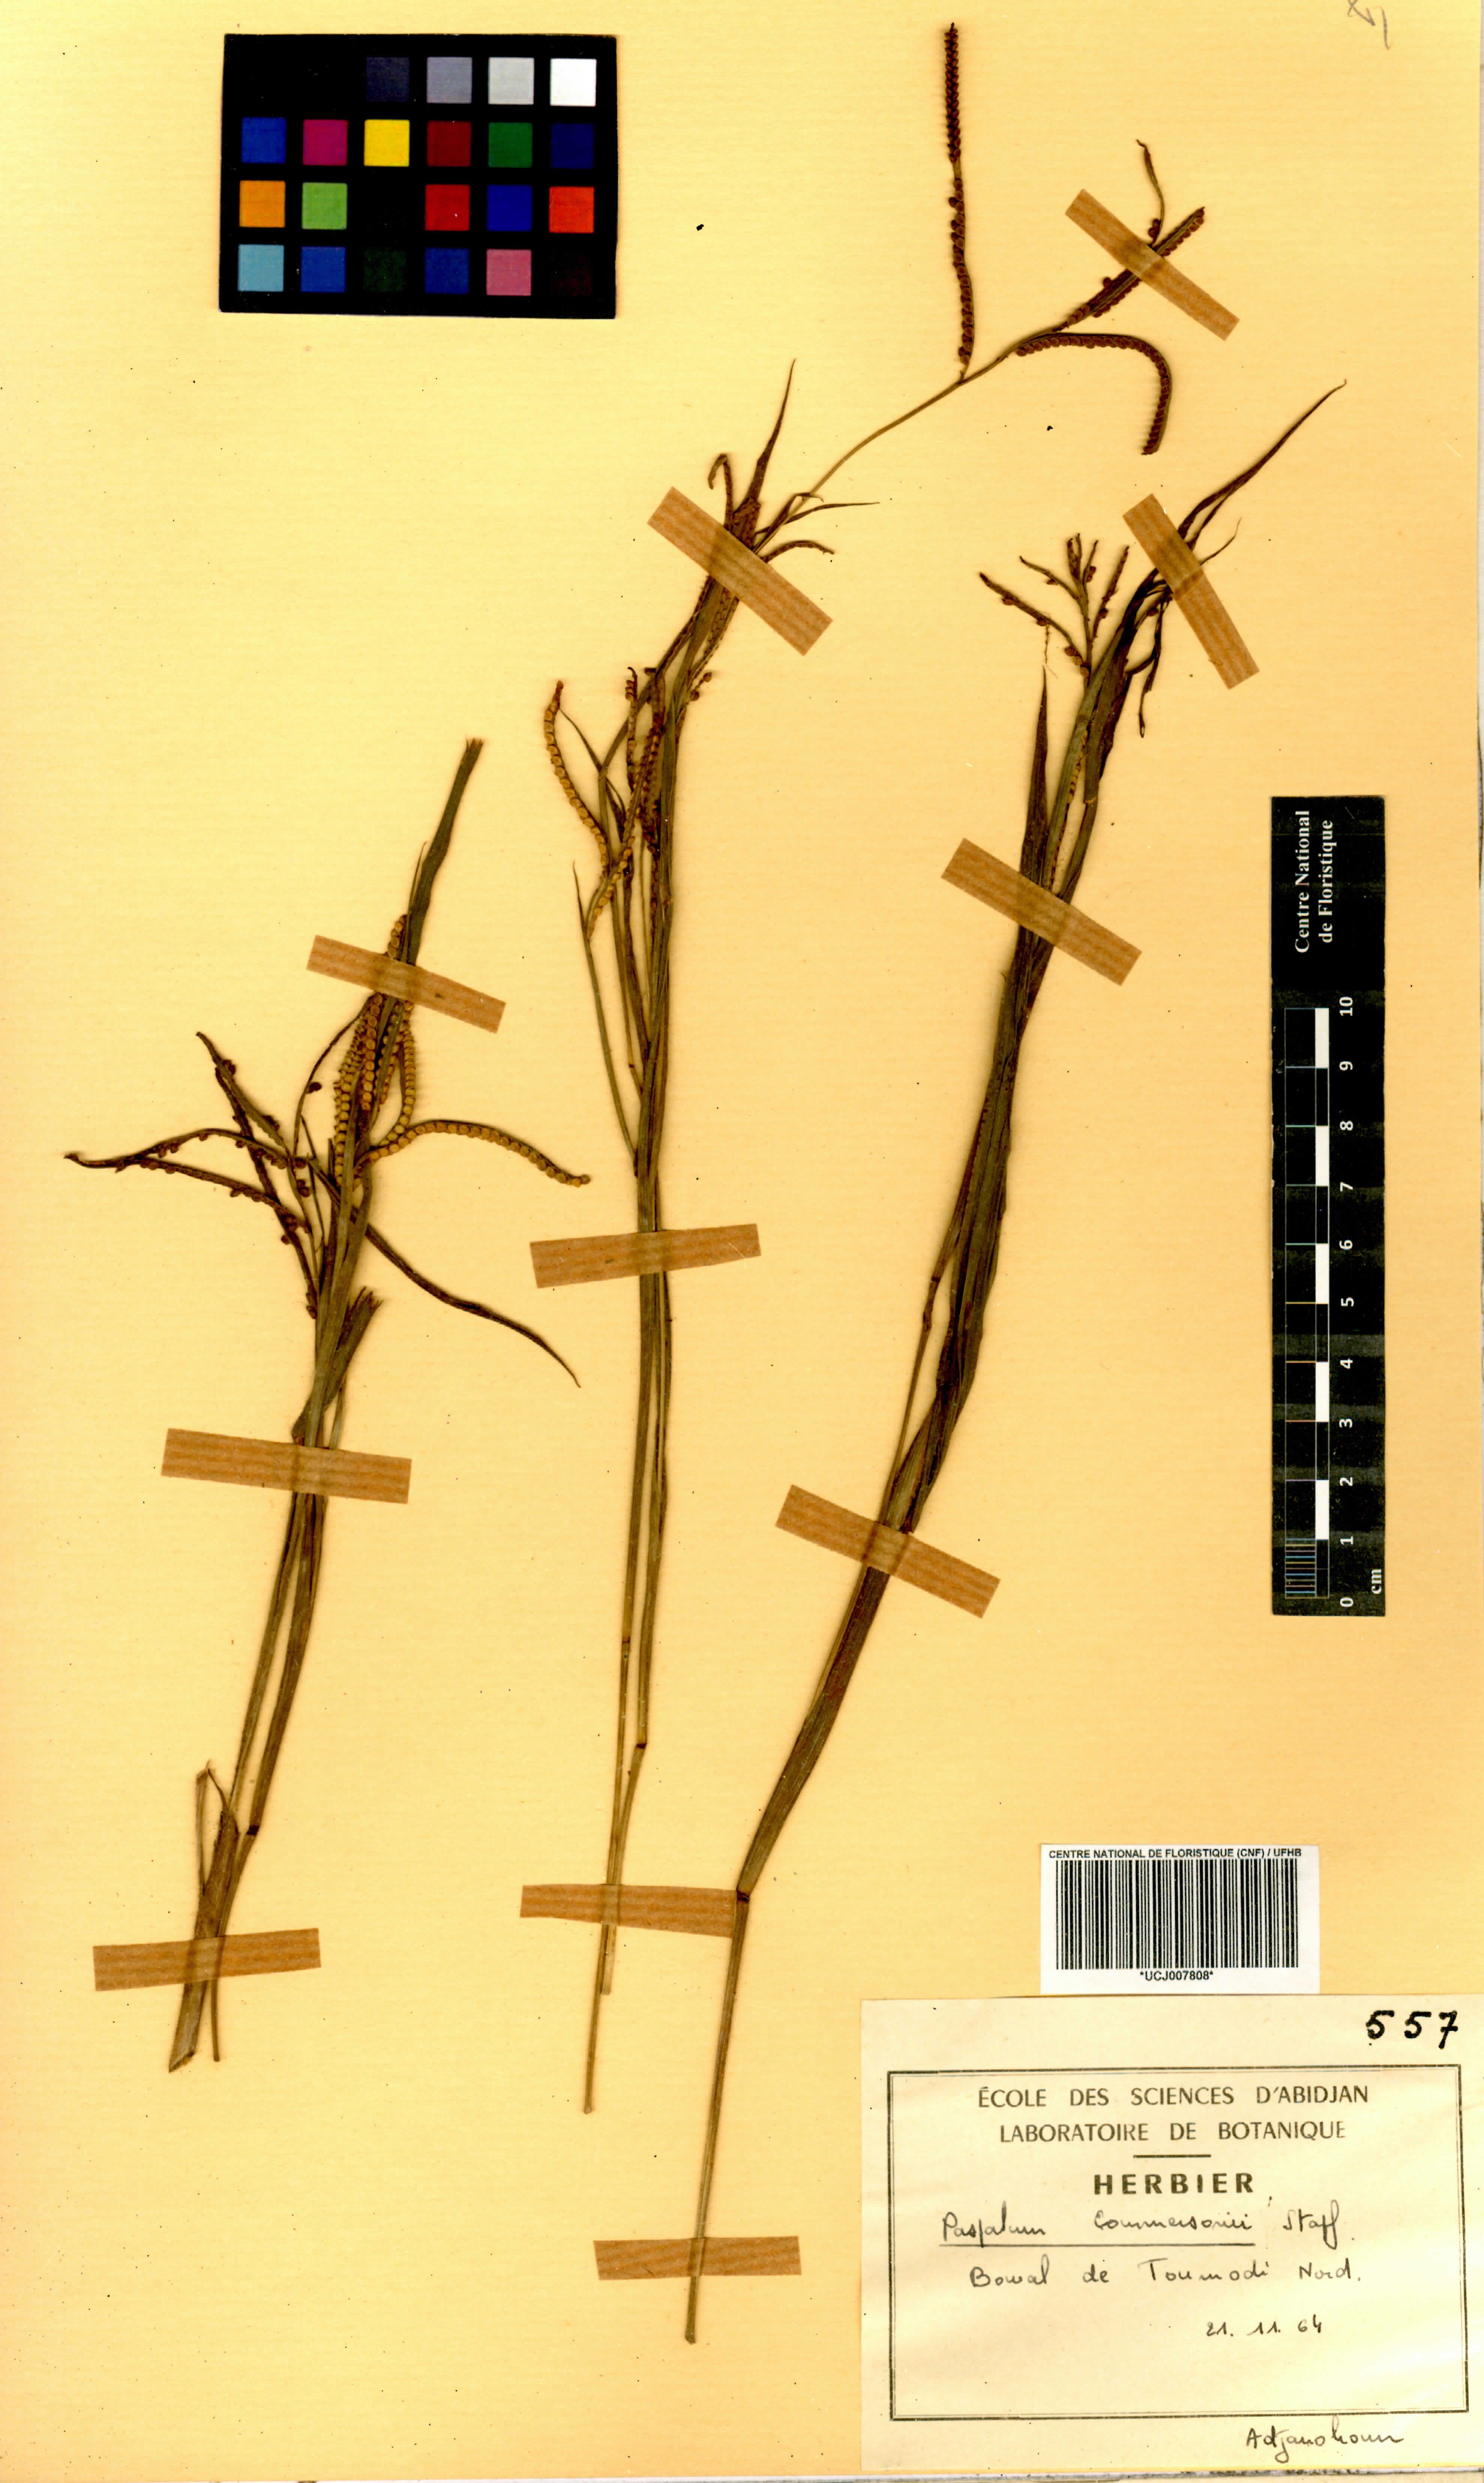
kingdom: Plantae
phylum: Tracheophyta
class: Liliopsida
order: Poales
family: Poaceae
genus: Paspalum
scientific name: Paspalum scrobiculatum
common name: Kodo millet
